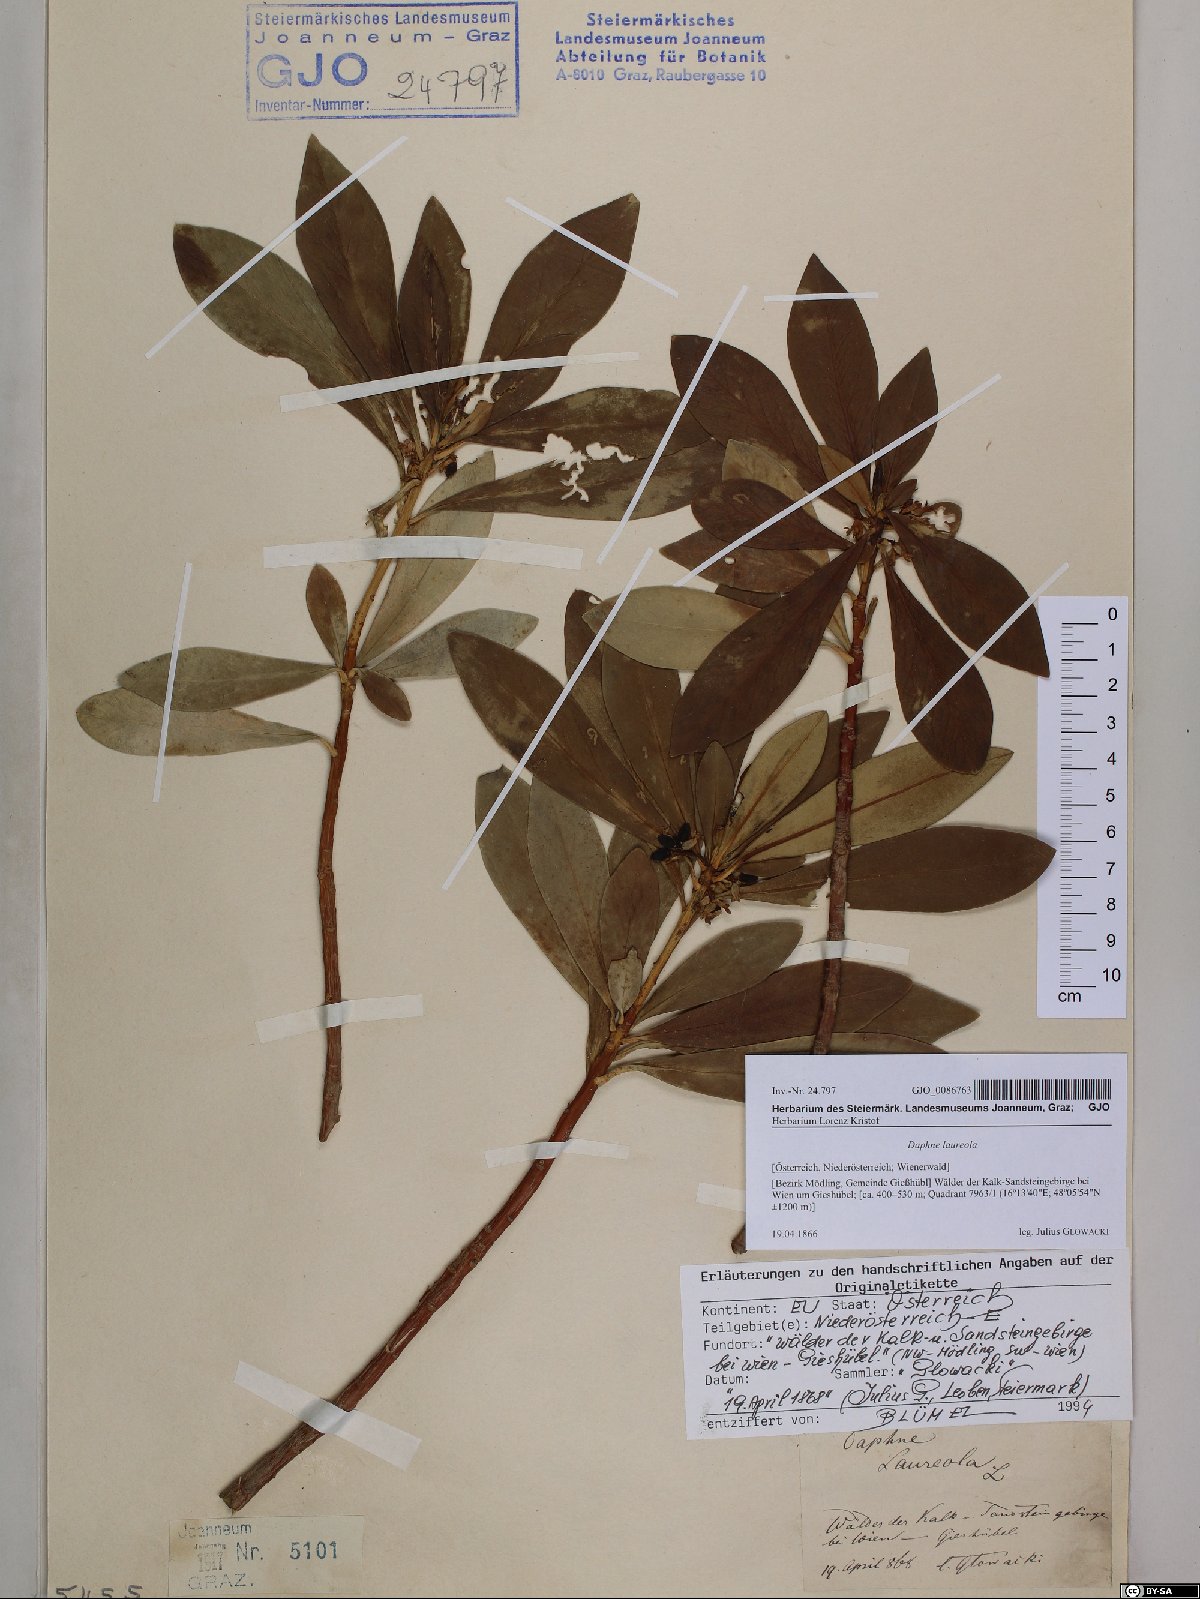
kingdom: Plantae
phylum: Tracheophyta
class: Magnoliopsida
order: Malvales
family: Thymelaeaceae
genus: Daphne
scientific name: Daphne laureola
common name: Spurge-laurel
